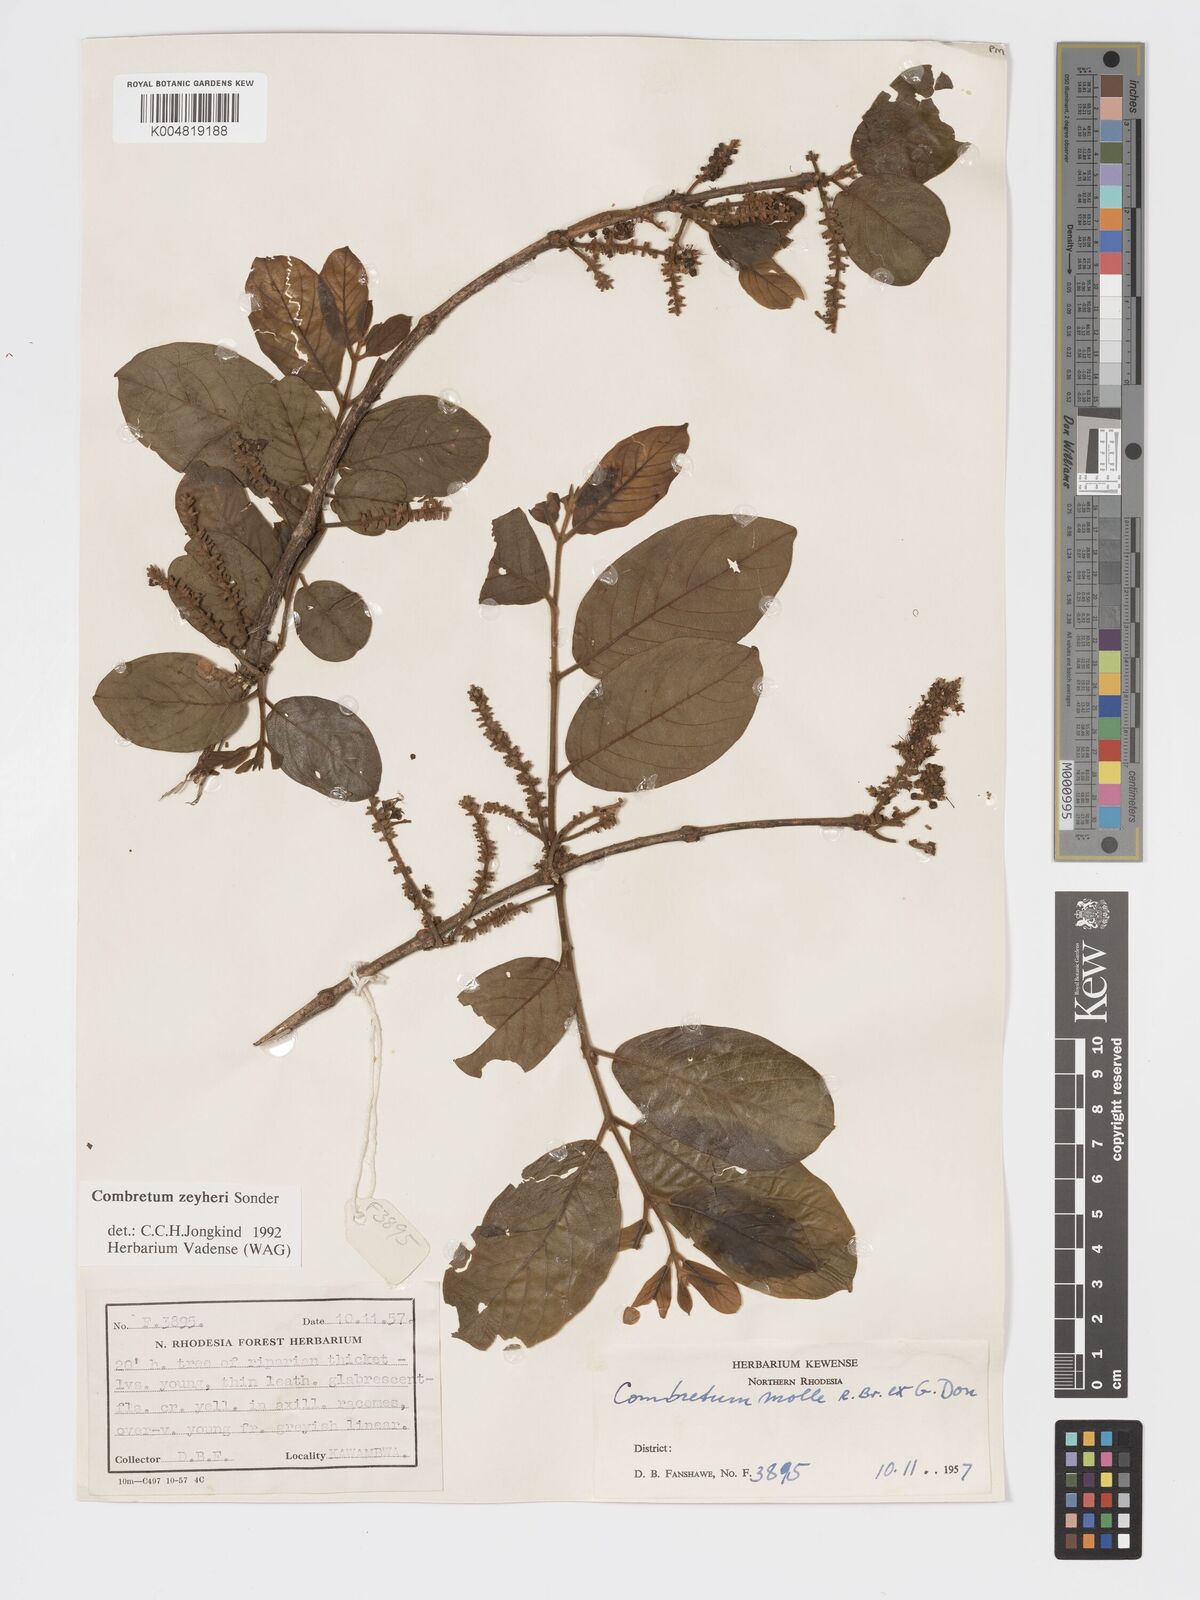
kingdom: Plantae
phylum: Tracheophyta
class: Magnoliopsida
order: Myrtales
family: Combretaceae
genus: Combretum
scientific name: Combretum zeyheri
